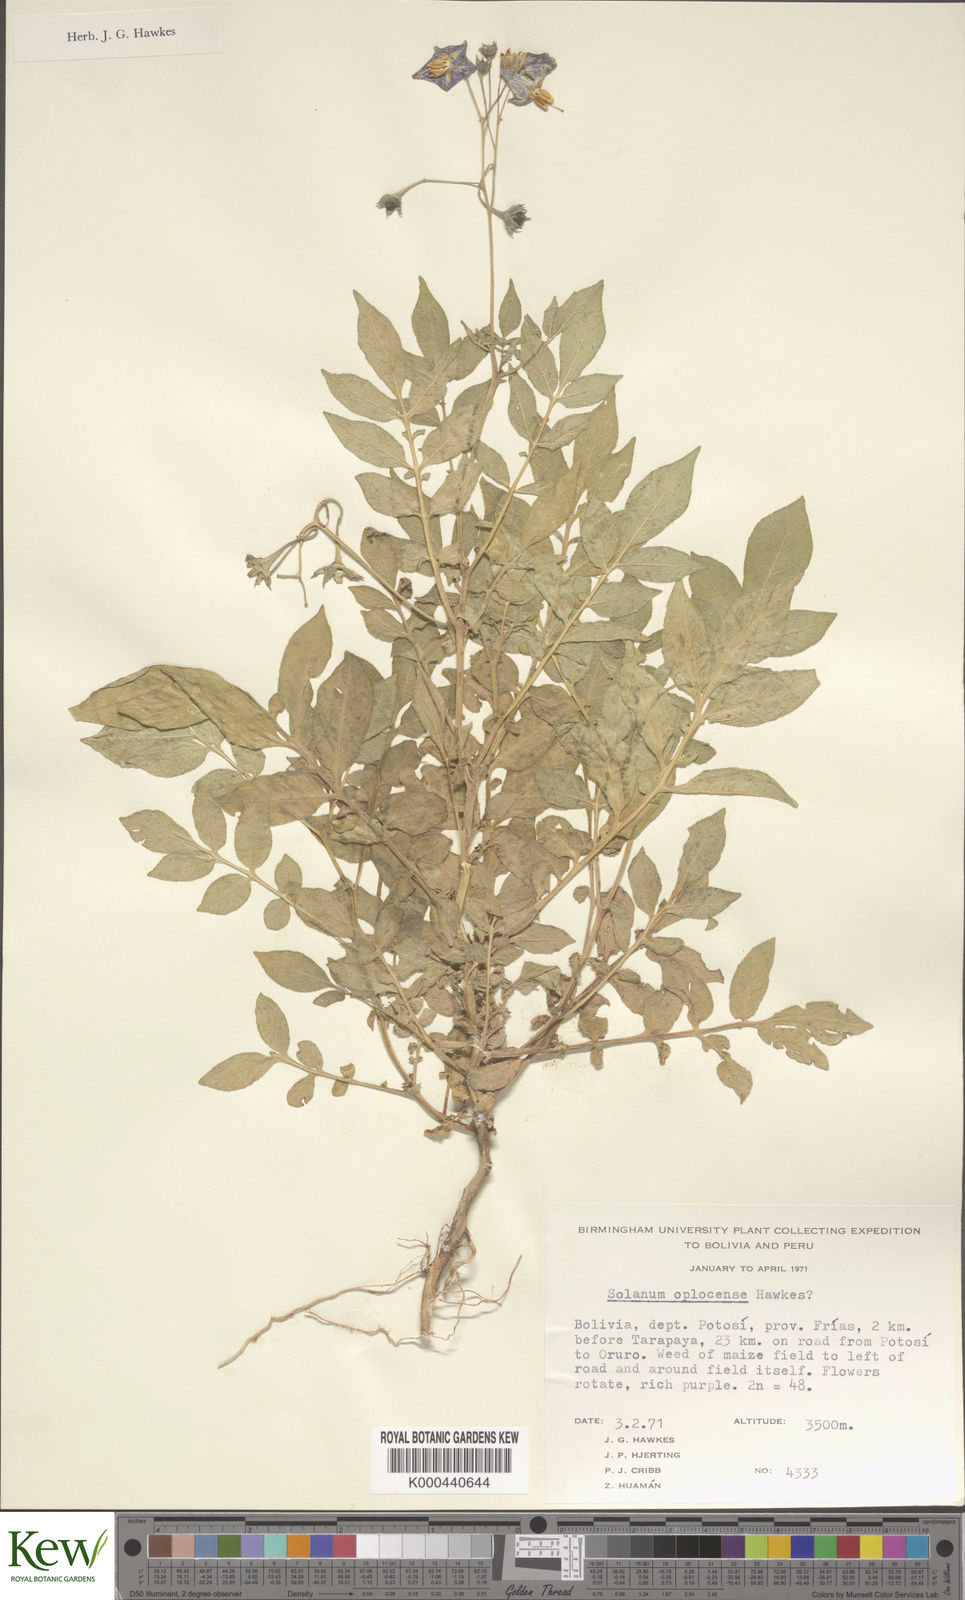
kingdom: Plantae
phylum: Tracheophyta
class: Magnoliopsida
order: Solanales
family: Solanaceae
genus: Solanum
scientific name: Solanum brevicaule
